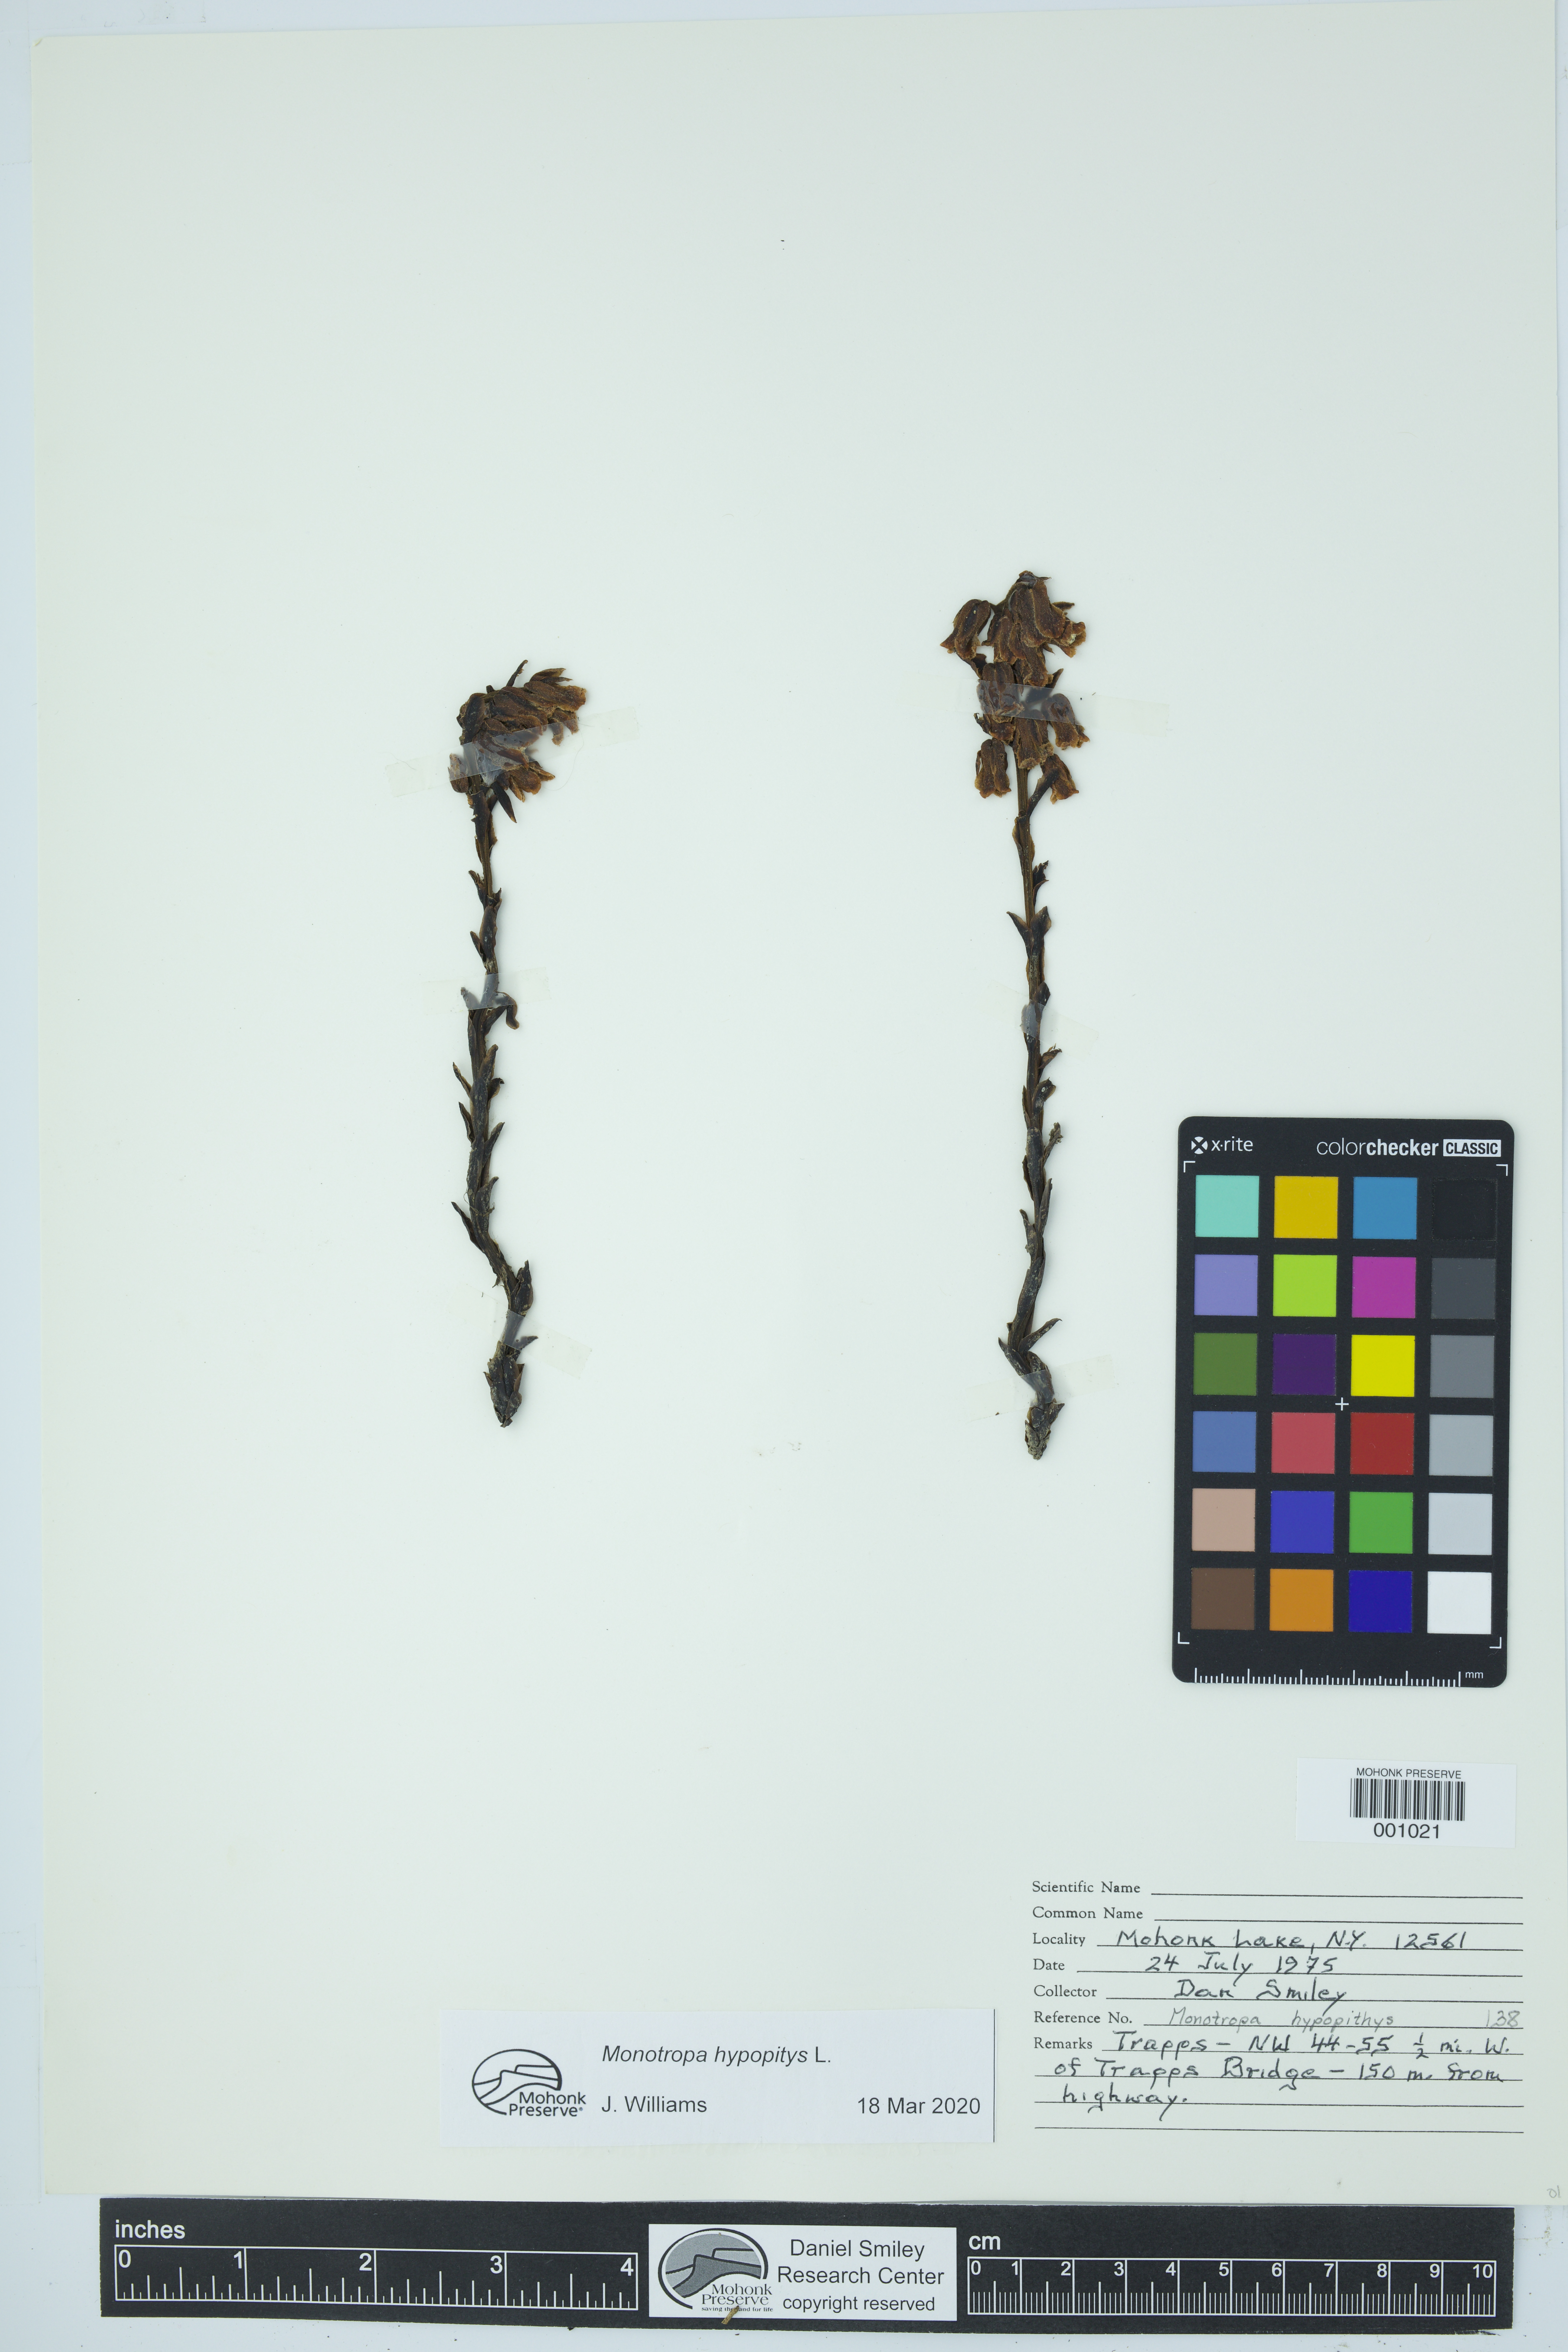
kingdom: Plantae
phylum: Tracheophyta
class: Magnoliopsida
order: Ericales
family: Ericaceae
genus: Hypopitys
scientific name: Hypopitys monotropa
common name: Yellow bird's-nest
